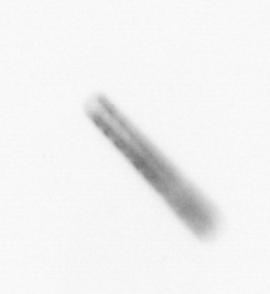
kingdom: Chromista
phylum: Ochrophyta
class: Bacillariophyceae
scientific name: Bacillariophyceae
